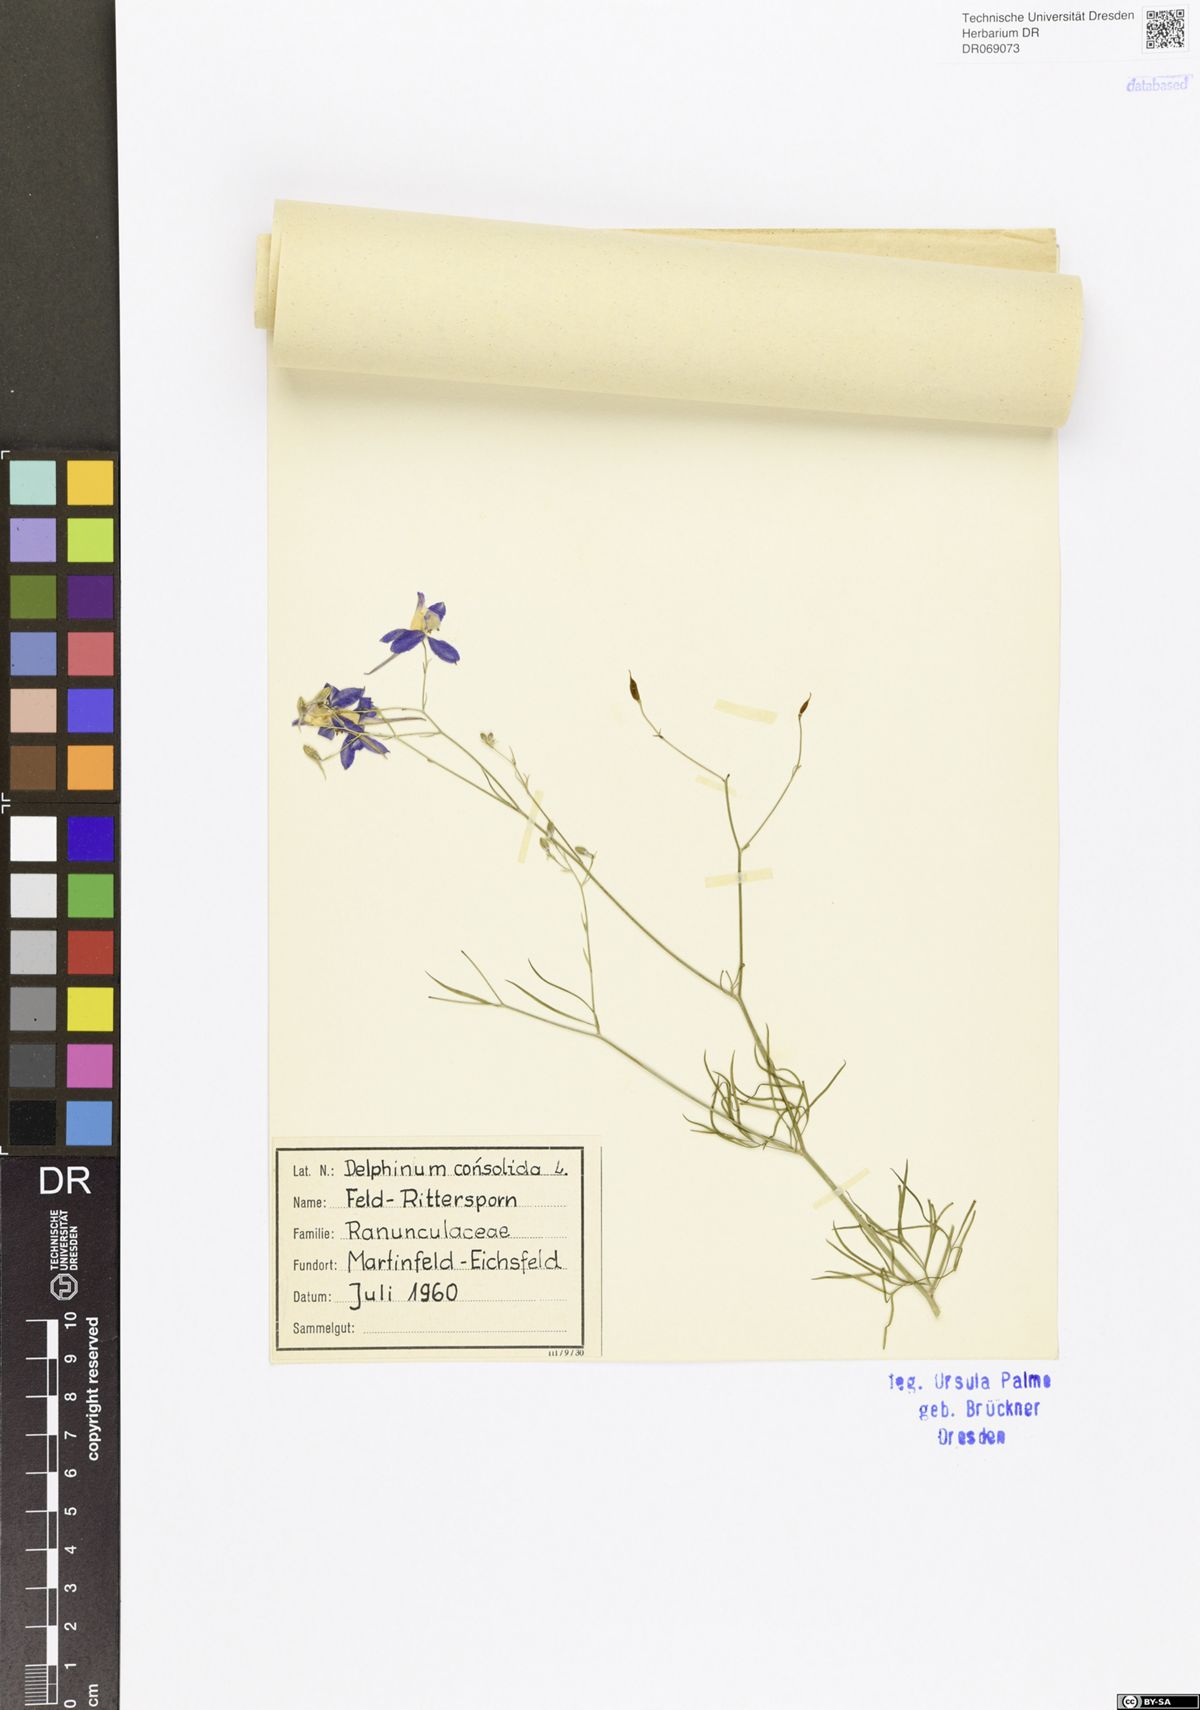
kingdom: Plantae
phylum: Tracheophyta
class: Magnoliopsida
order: Ranunculales
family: Ranunculaceae
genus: Delphinium
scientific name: Delphinium consolida
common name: Branching larkspur
